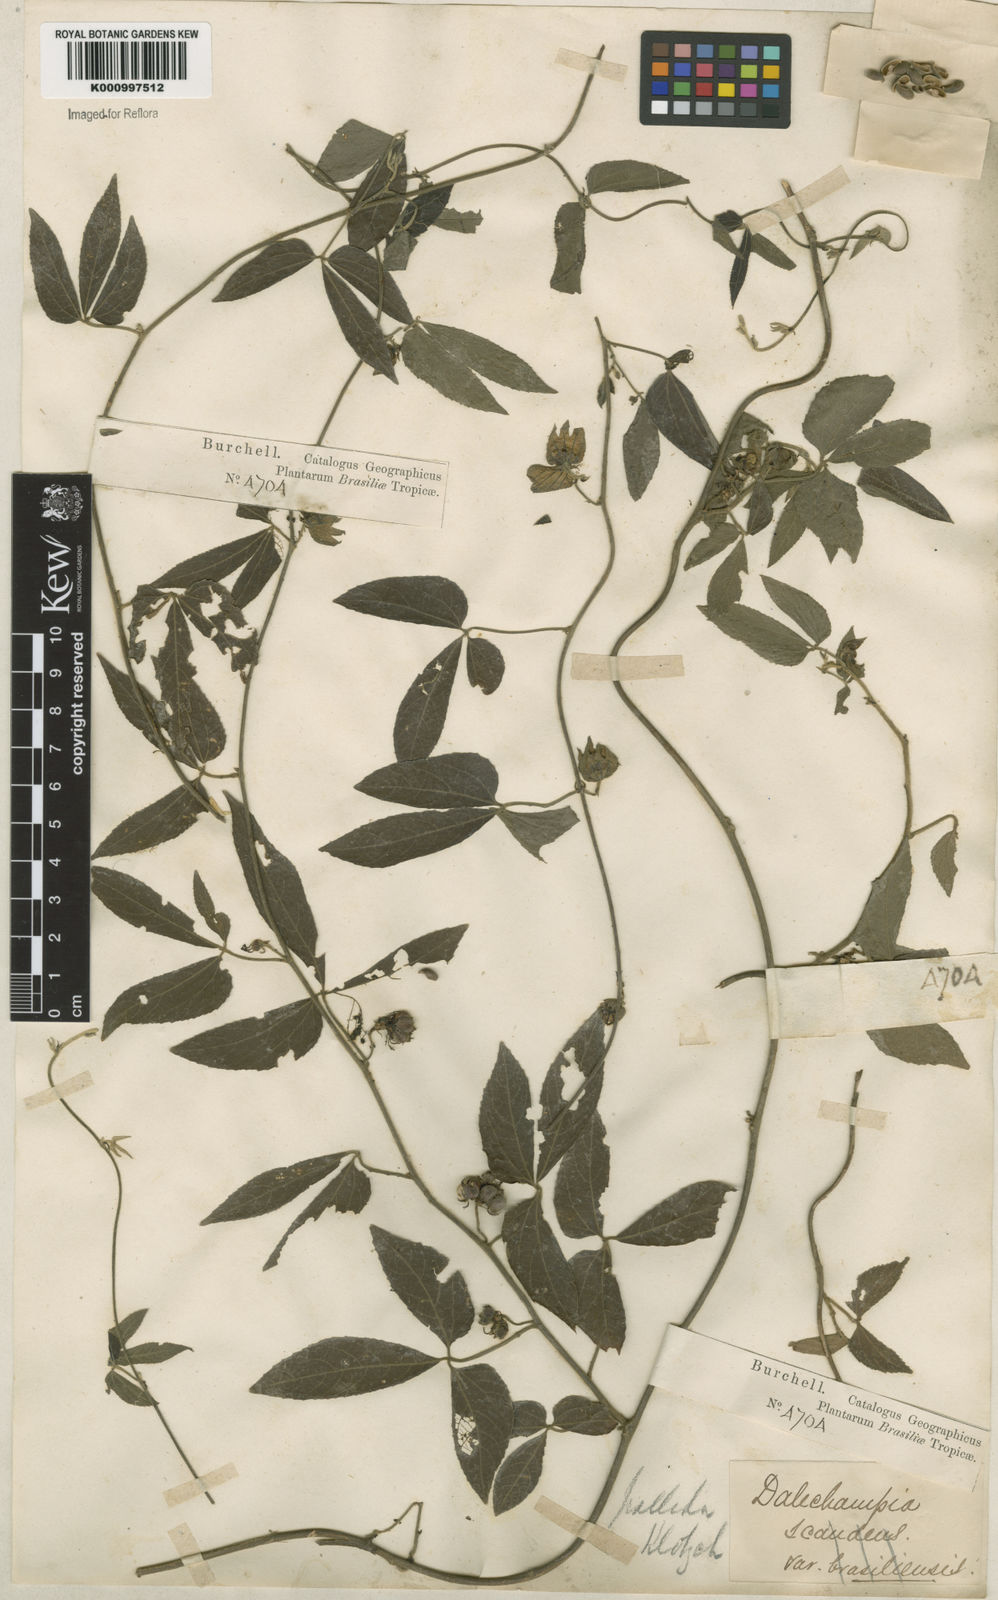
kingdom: Plantae
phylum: Tracheophyta
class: Magnoliopsida
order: Malpighiales
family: Euphorbiaceae
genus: Dalechampia
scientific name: Dalechampia
